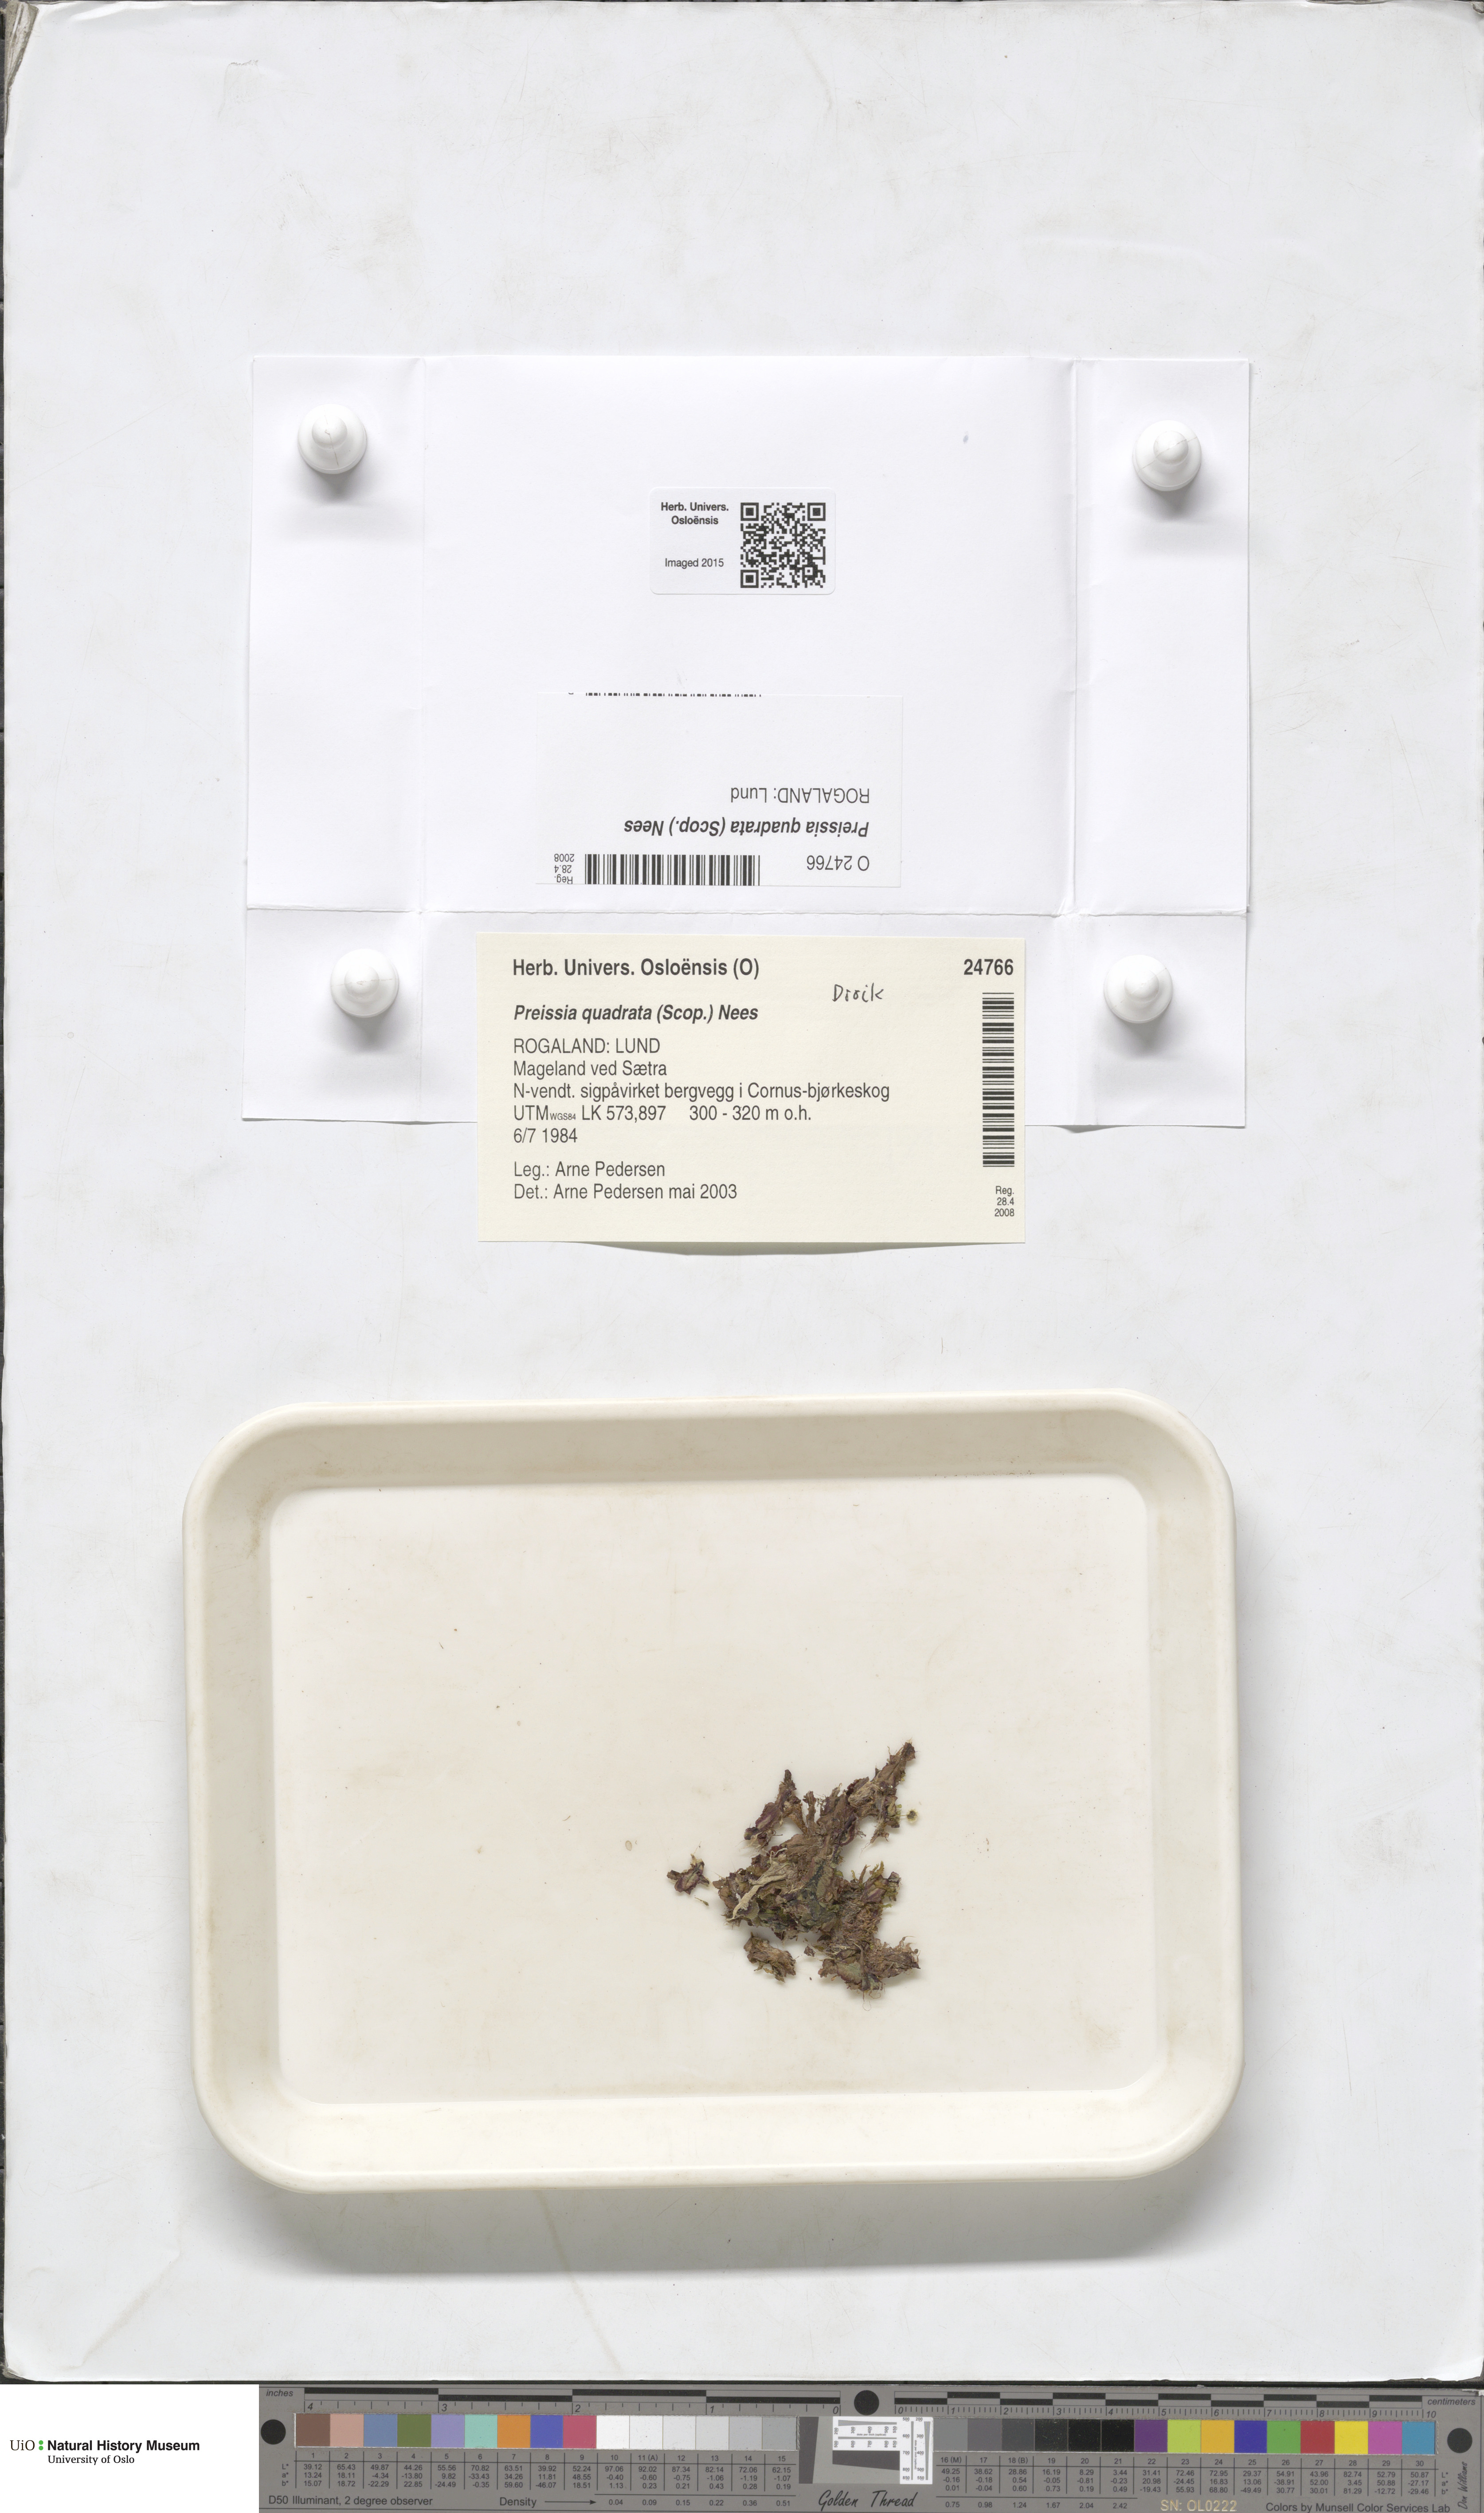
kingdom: Plantae
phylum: Marchantiophyta
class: Marchantiopsida
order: Marchantiales
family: Marchantiaceae
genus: Marchantia
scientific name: Marchantia quadrata
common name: Narrow mushroom-headed liverwort
